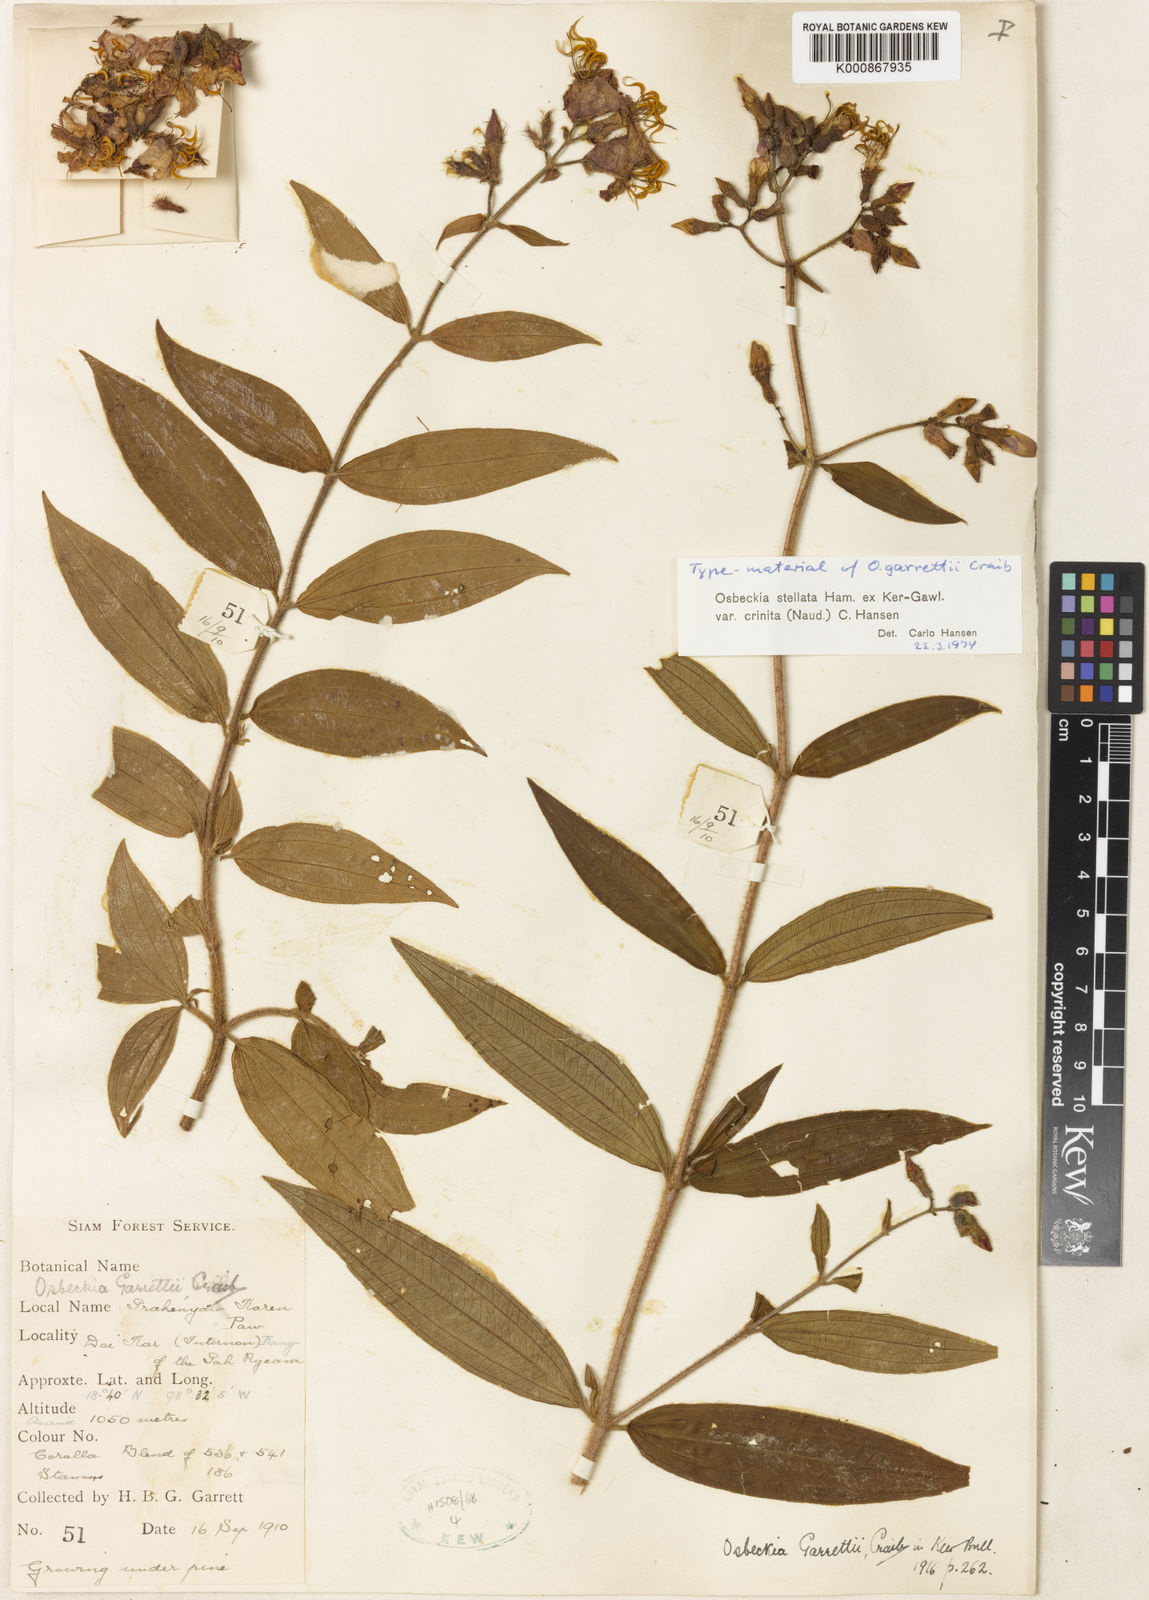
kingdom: Plantae
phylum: Tracheophyta
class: Magnoliopsida
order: Myrtales
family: Melastomataceae
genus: Osbeckia
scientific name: Osbeckia crinita
